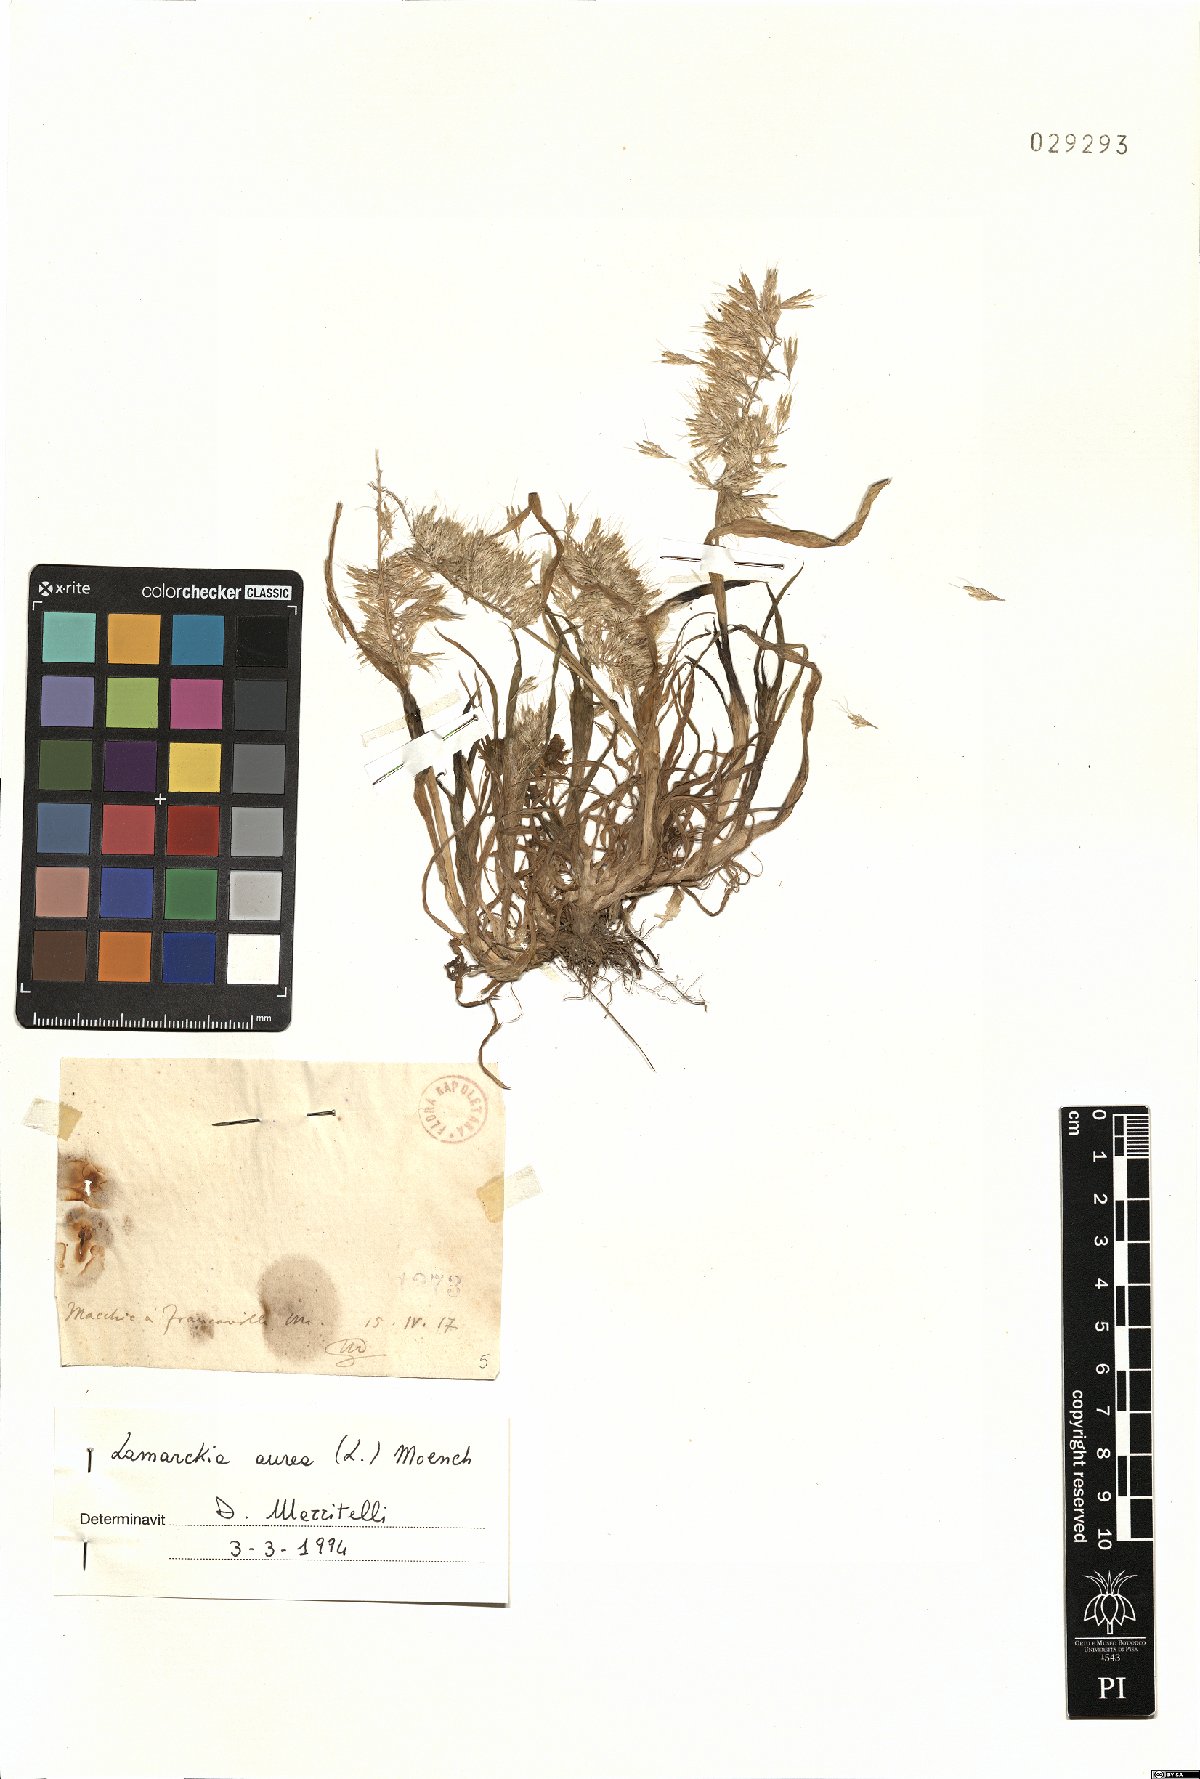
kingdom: Plantae
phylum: Tracheophyta
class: Liliopsida
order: Poales
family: Poaceae
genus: Lamarckia
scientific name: Lamarckia aurea
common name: Golden dog's-tail
